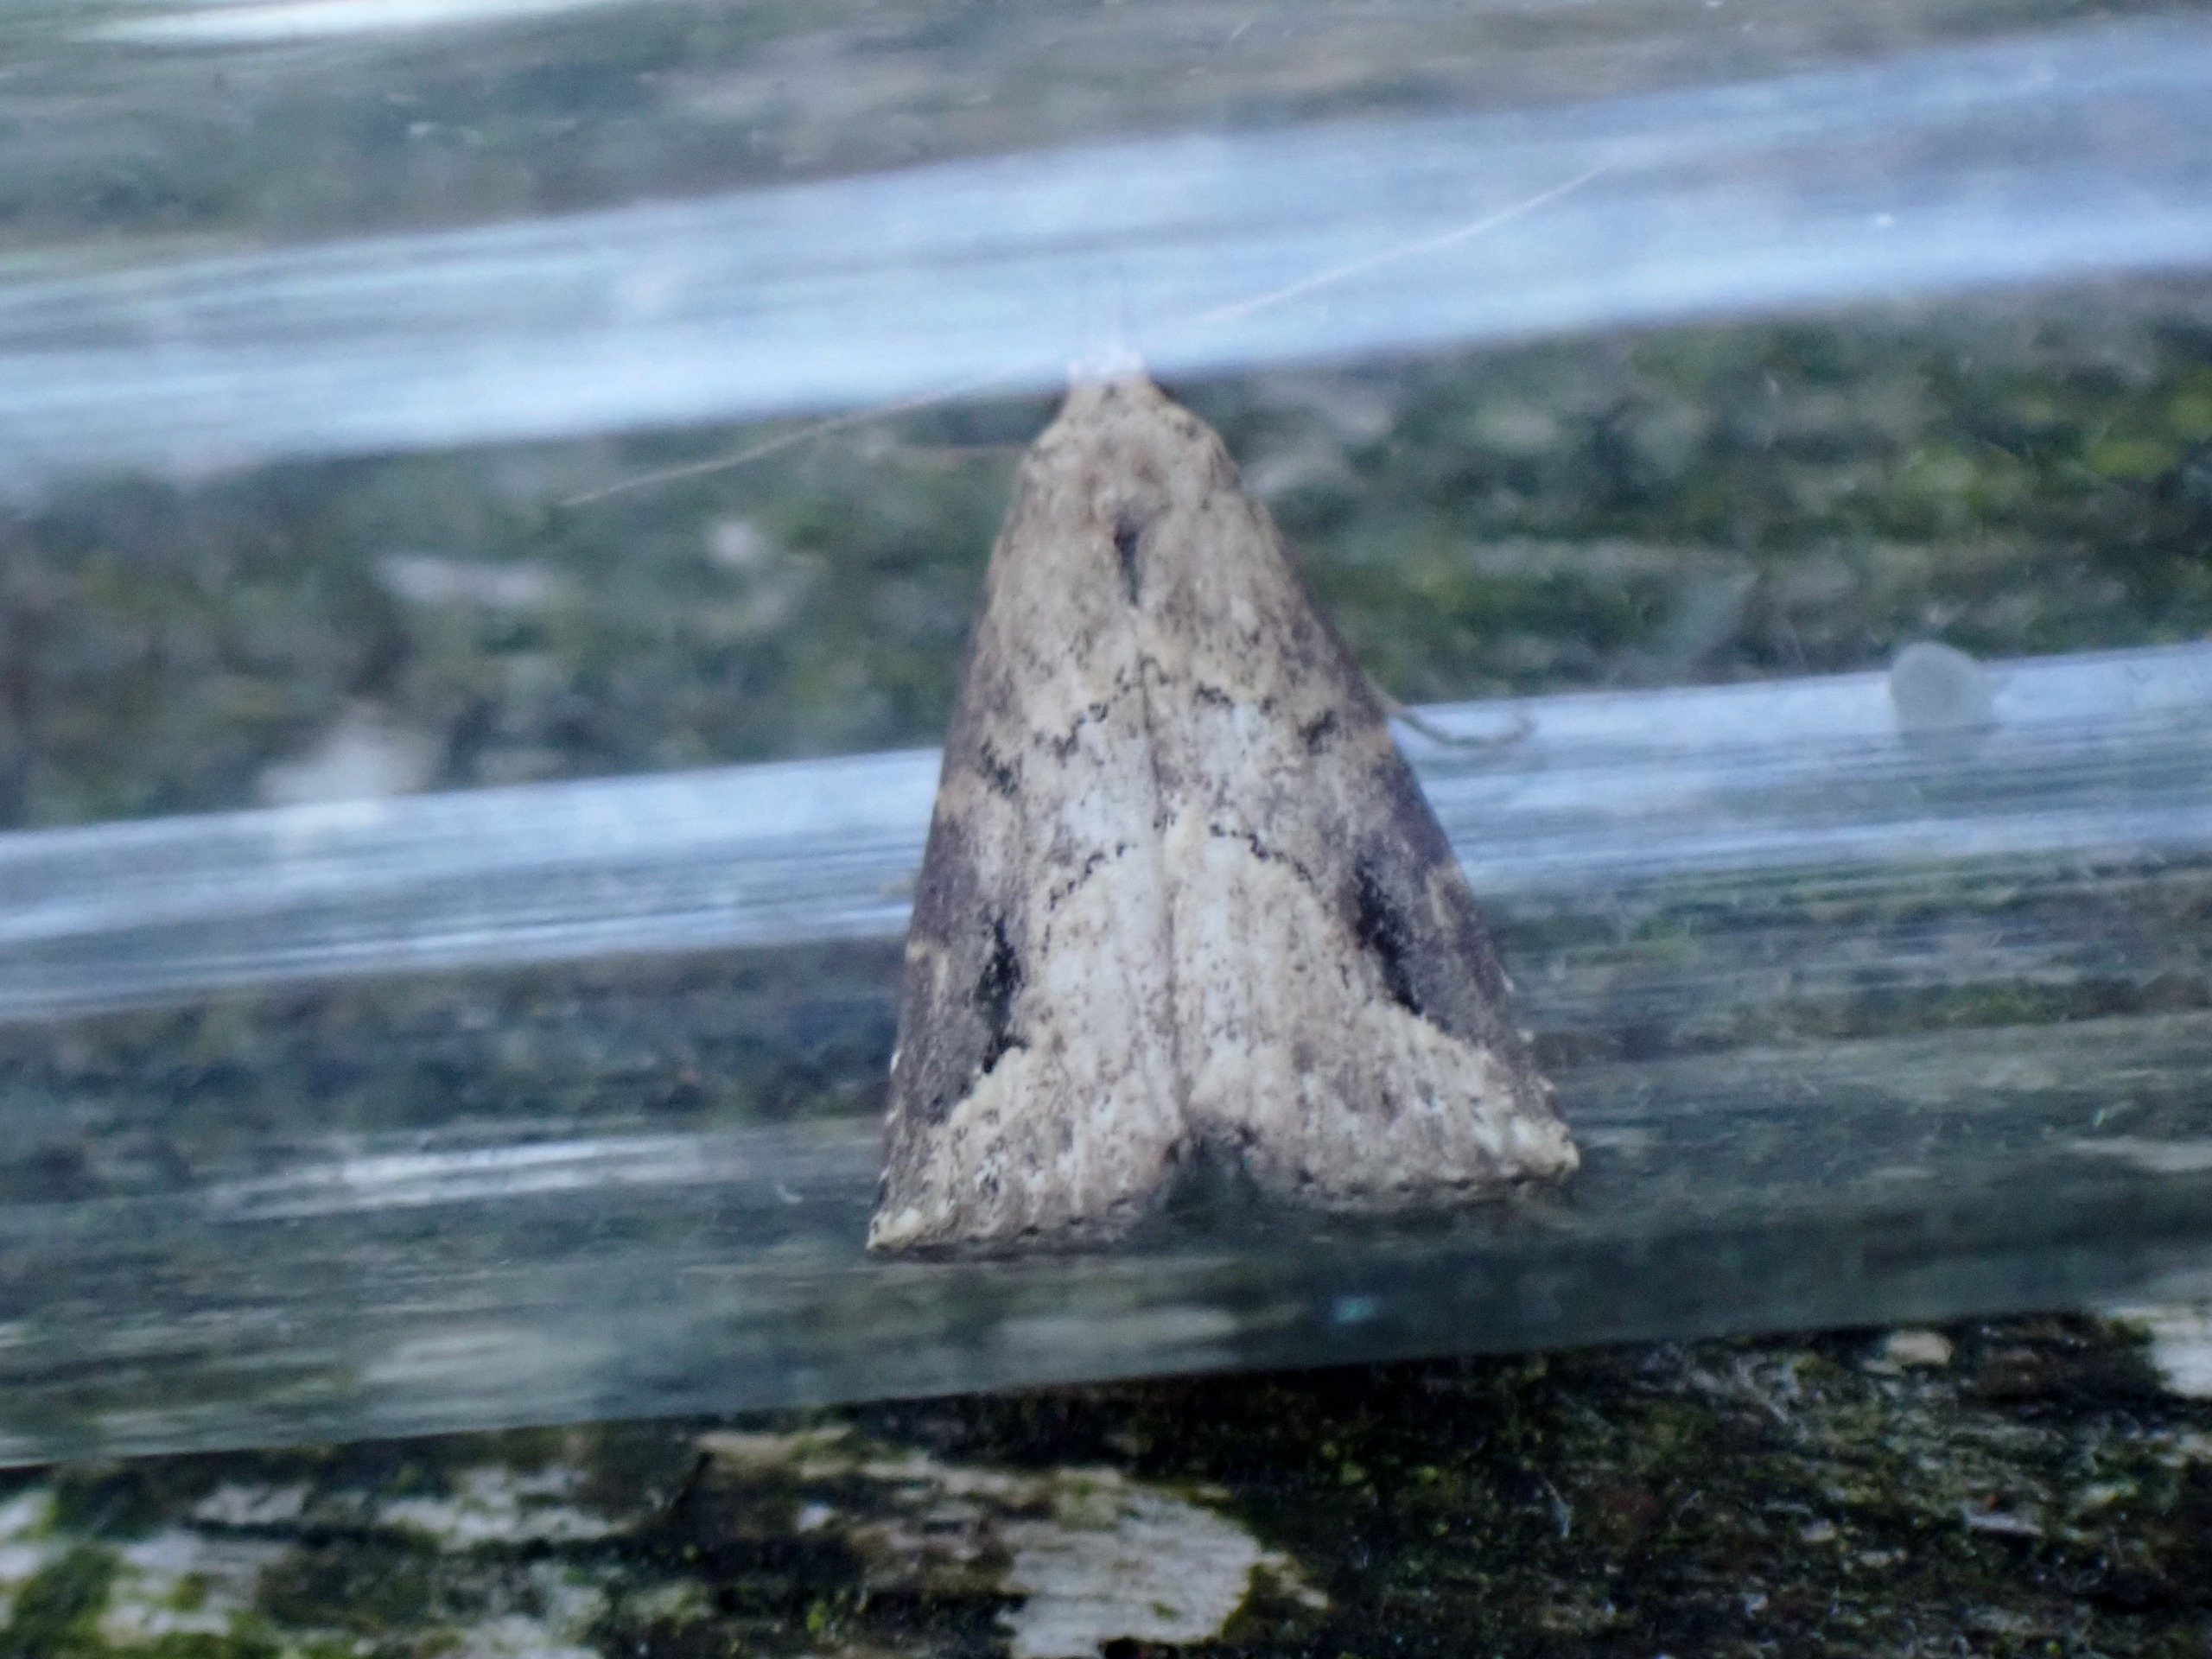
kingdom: Animalia
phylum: Arthropoda
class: Insecta
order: Lepidoptera
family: Erebidae
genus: Schrankia
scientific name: Schrankia costaestrigalis
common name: Streg-snudeugle
